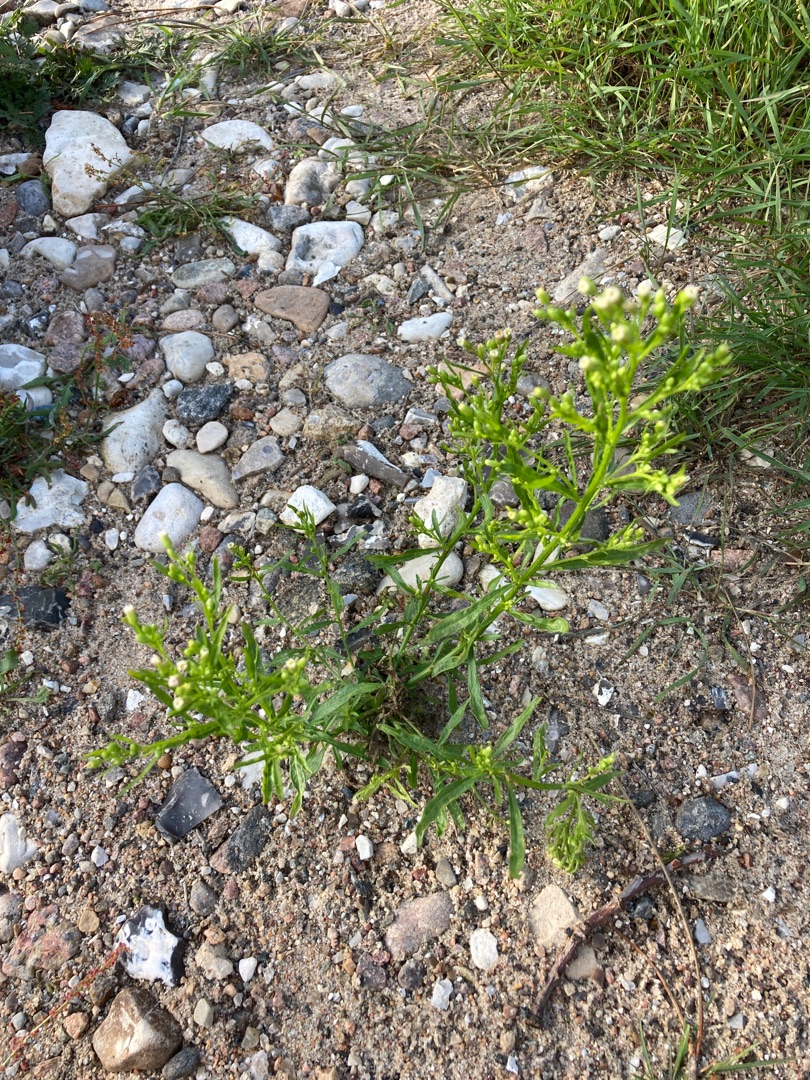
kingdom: Plantae
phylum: Tracheophyta
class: Magnoliopsida
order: Asterales
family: Asteraceae
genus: Erigeron
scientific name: Erigeron canadensis
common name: Kanadisk bakkestjerne
